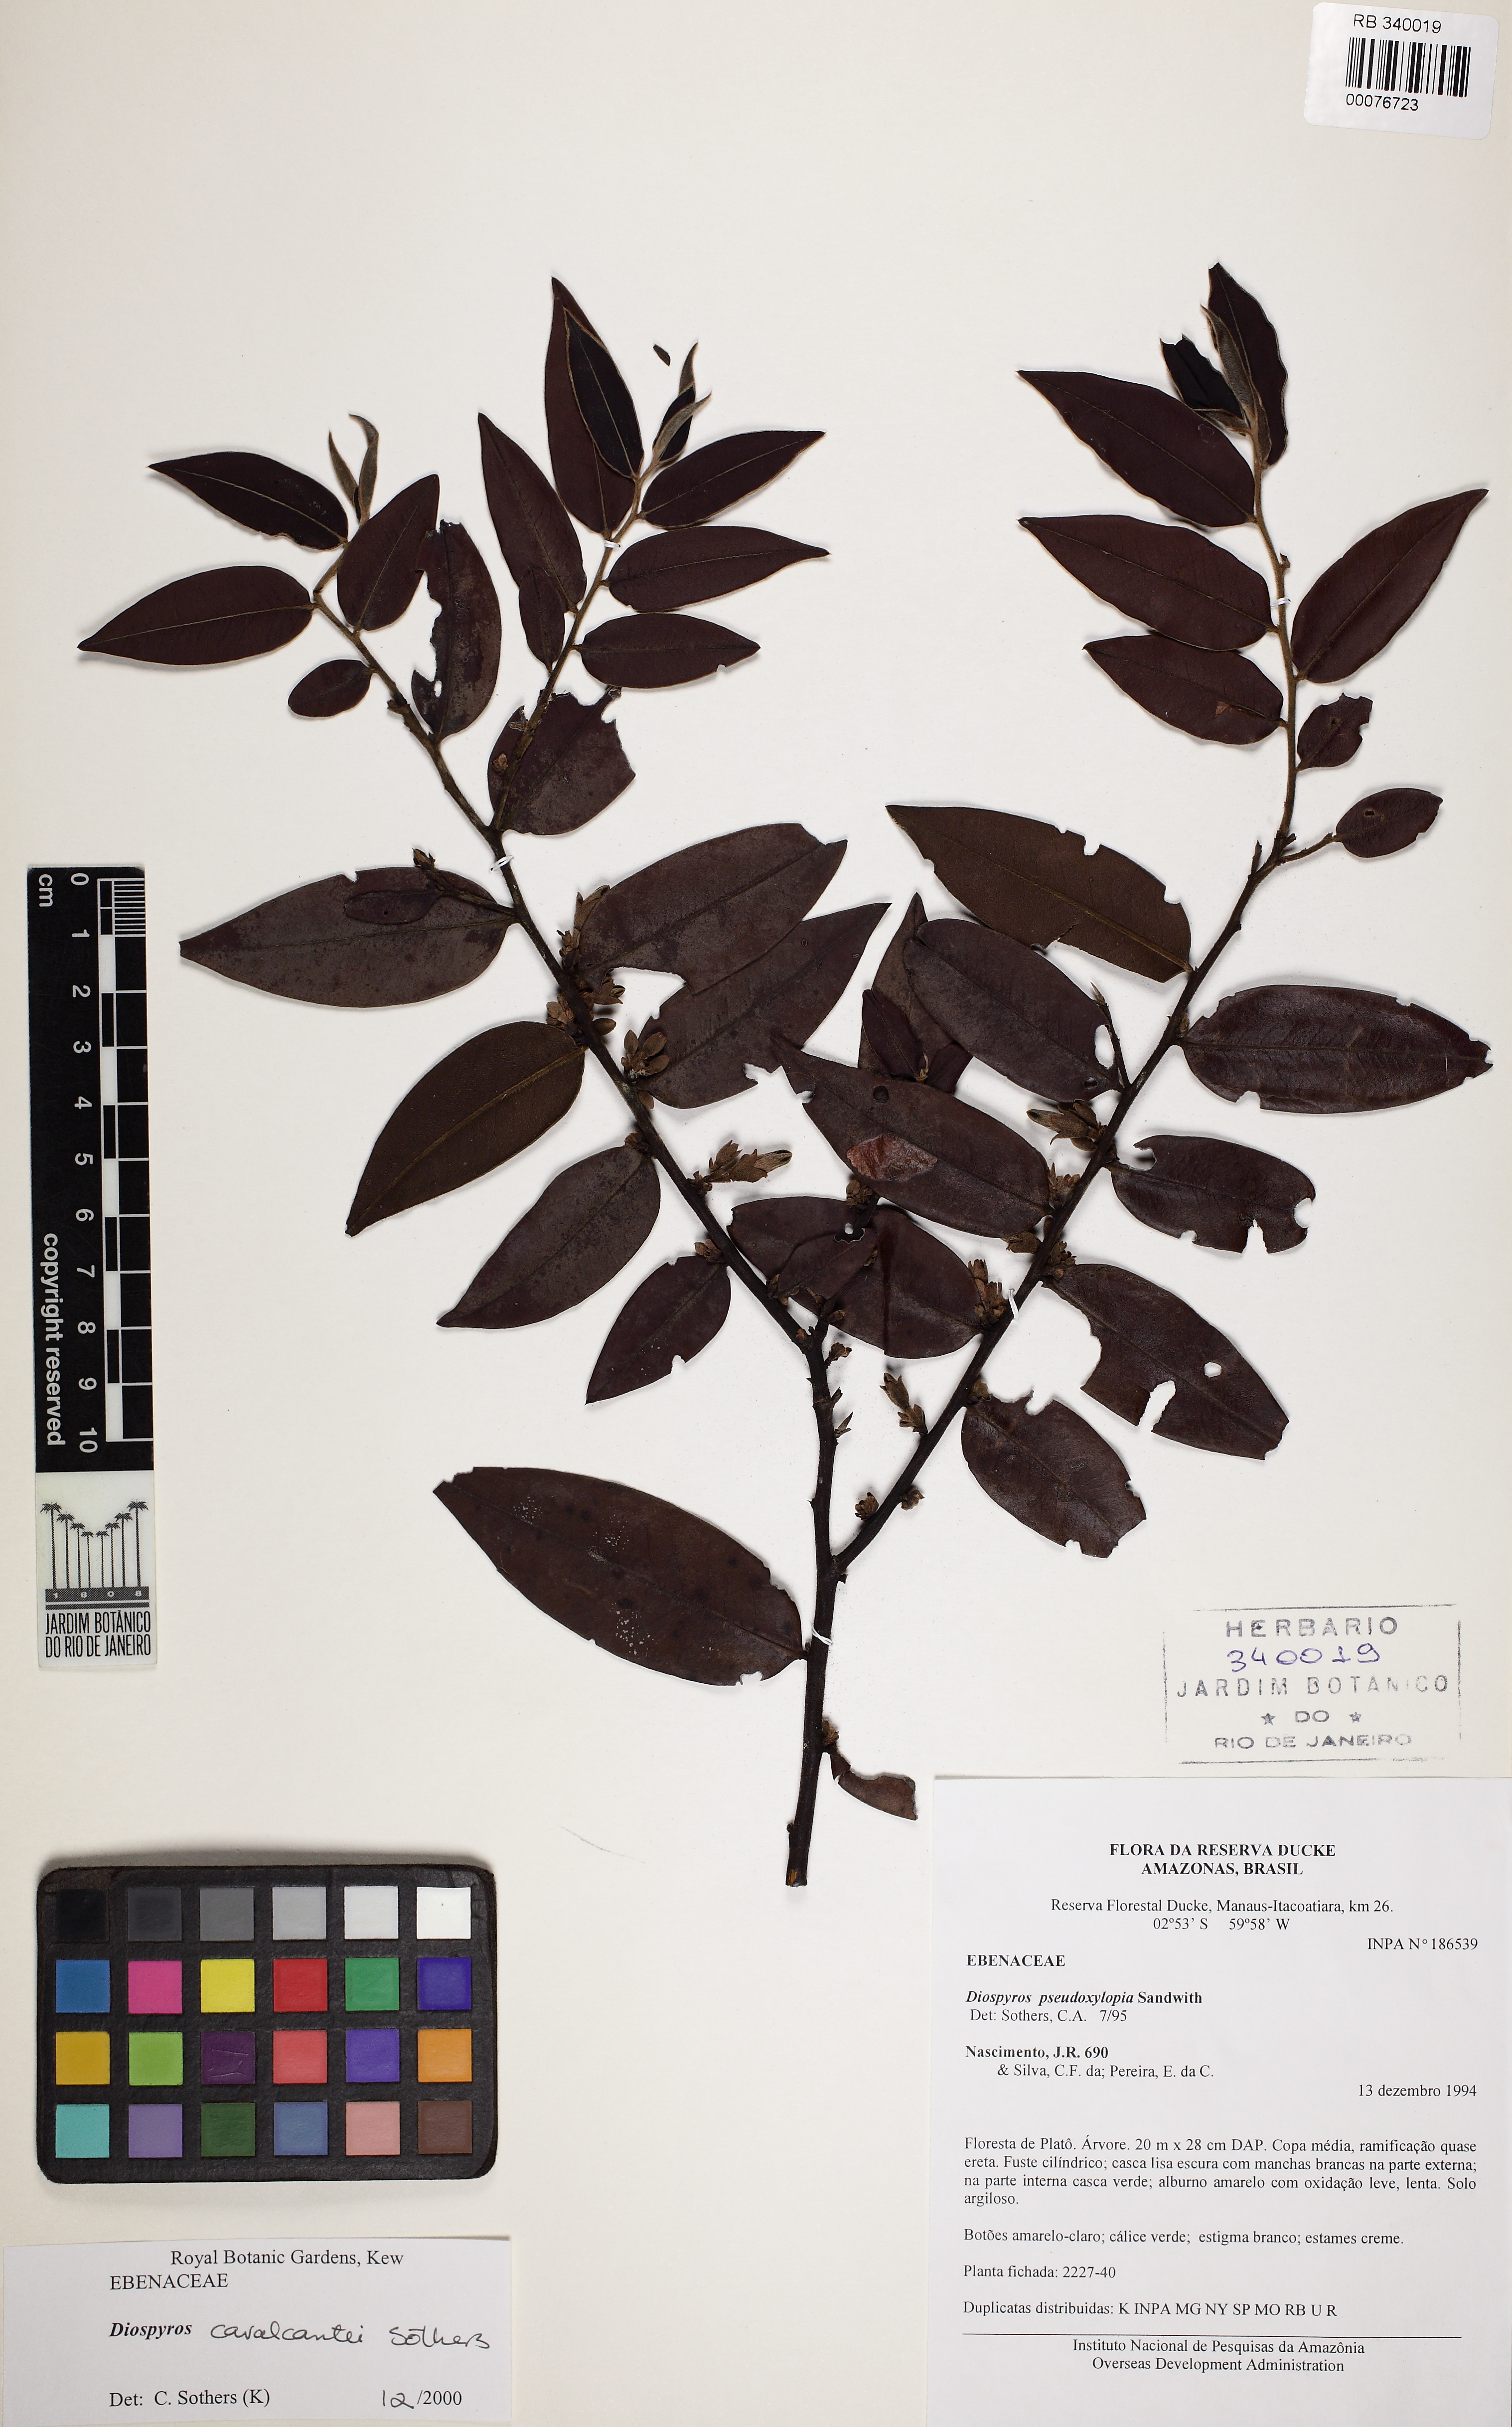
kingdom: Plantae
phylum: Tracheophyta
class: Magnoliopsida
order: Ericales
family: Ebenaceae
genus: Diospyros
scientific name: Diospyros cavalcantei
